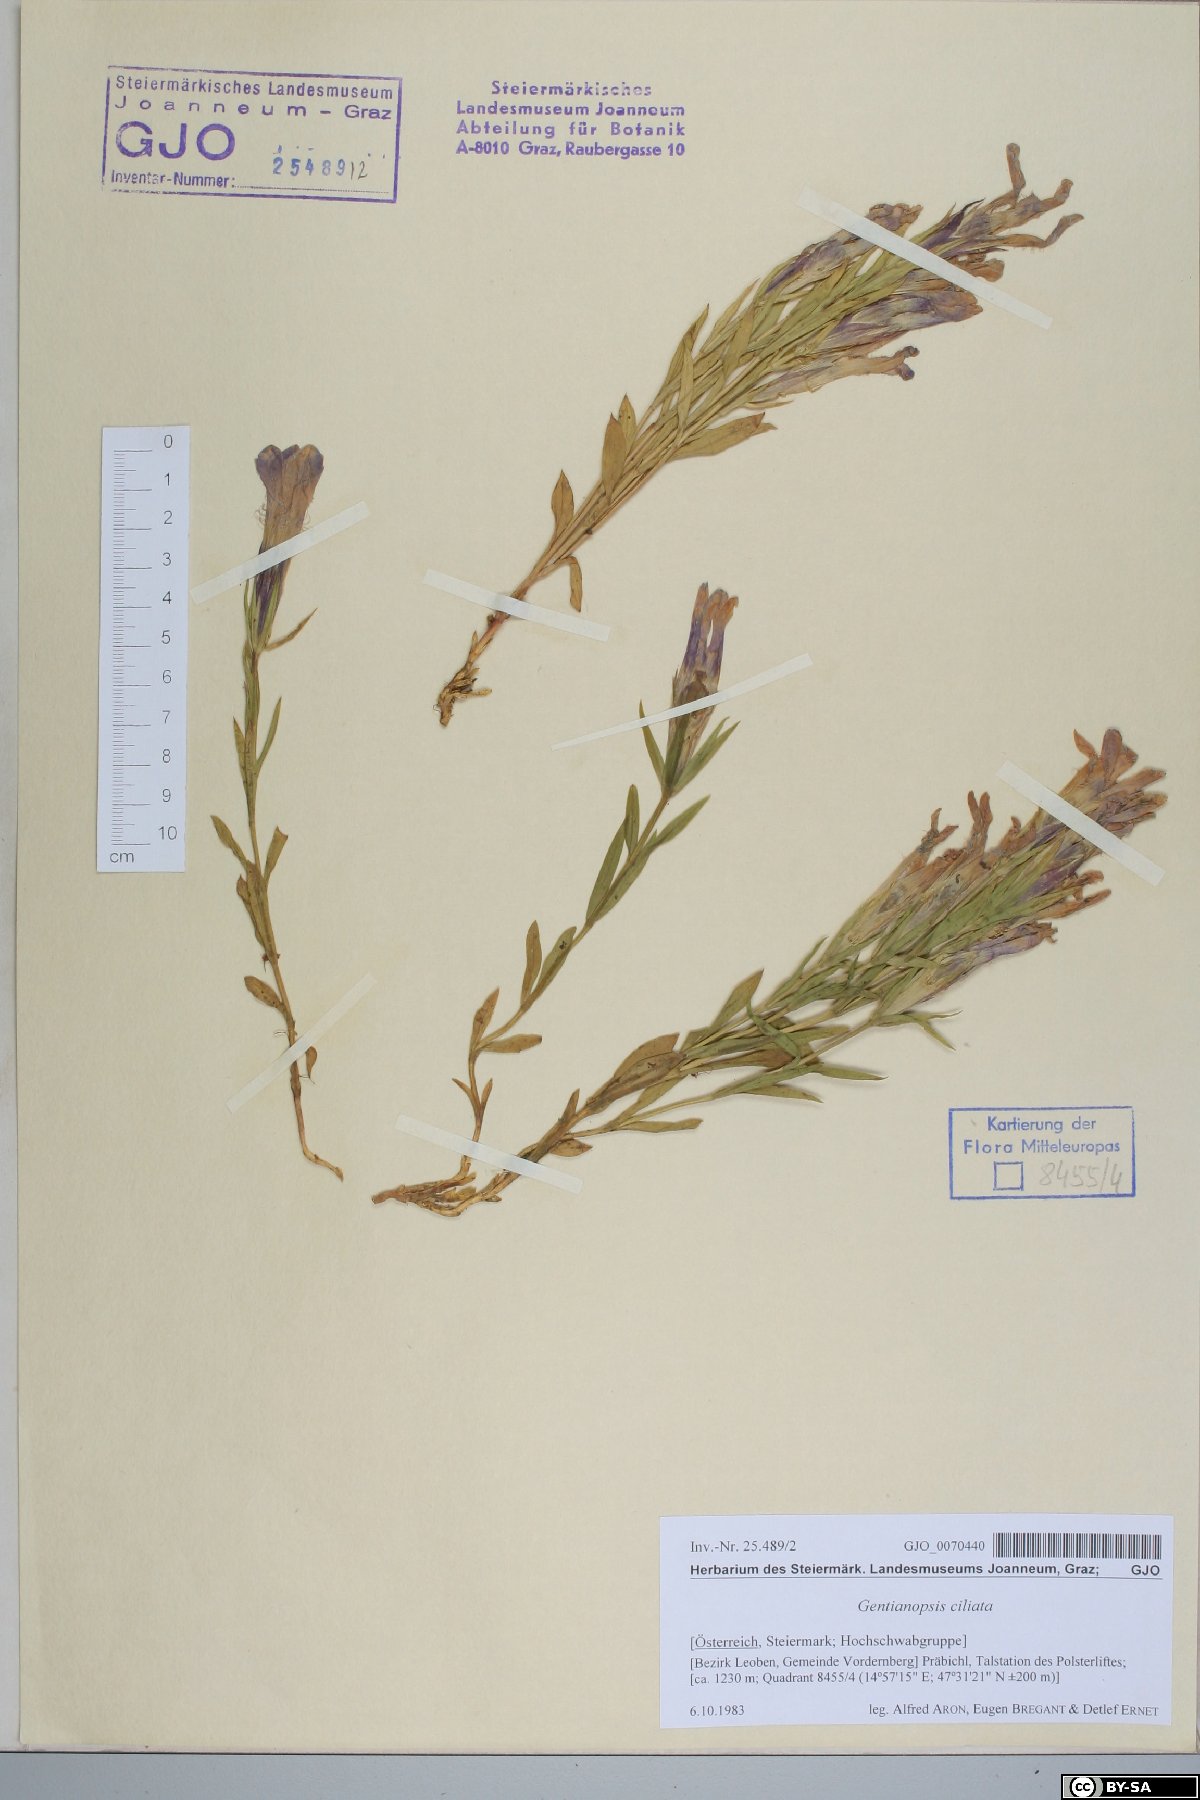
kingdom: Plantae
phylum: Tracheophyta
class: Magnoliopsida
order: Gentianales
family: Gentianaceae
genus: Gentianopsis
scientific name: Gentianopsis ciliata
